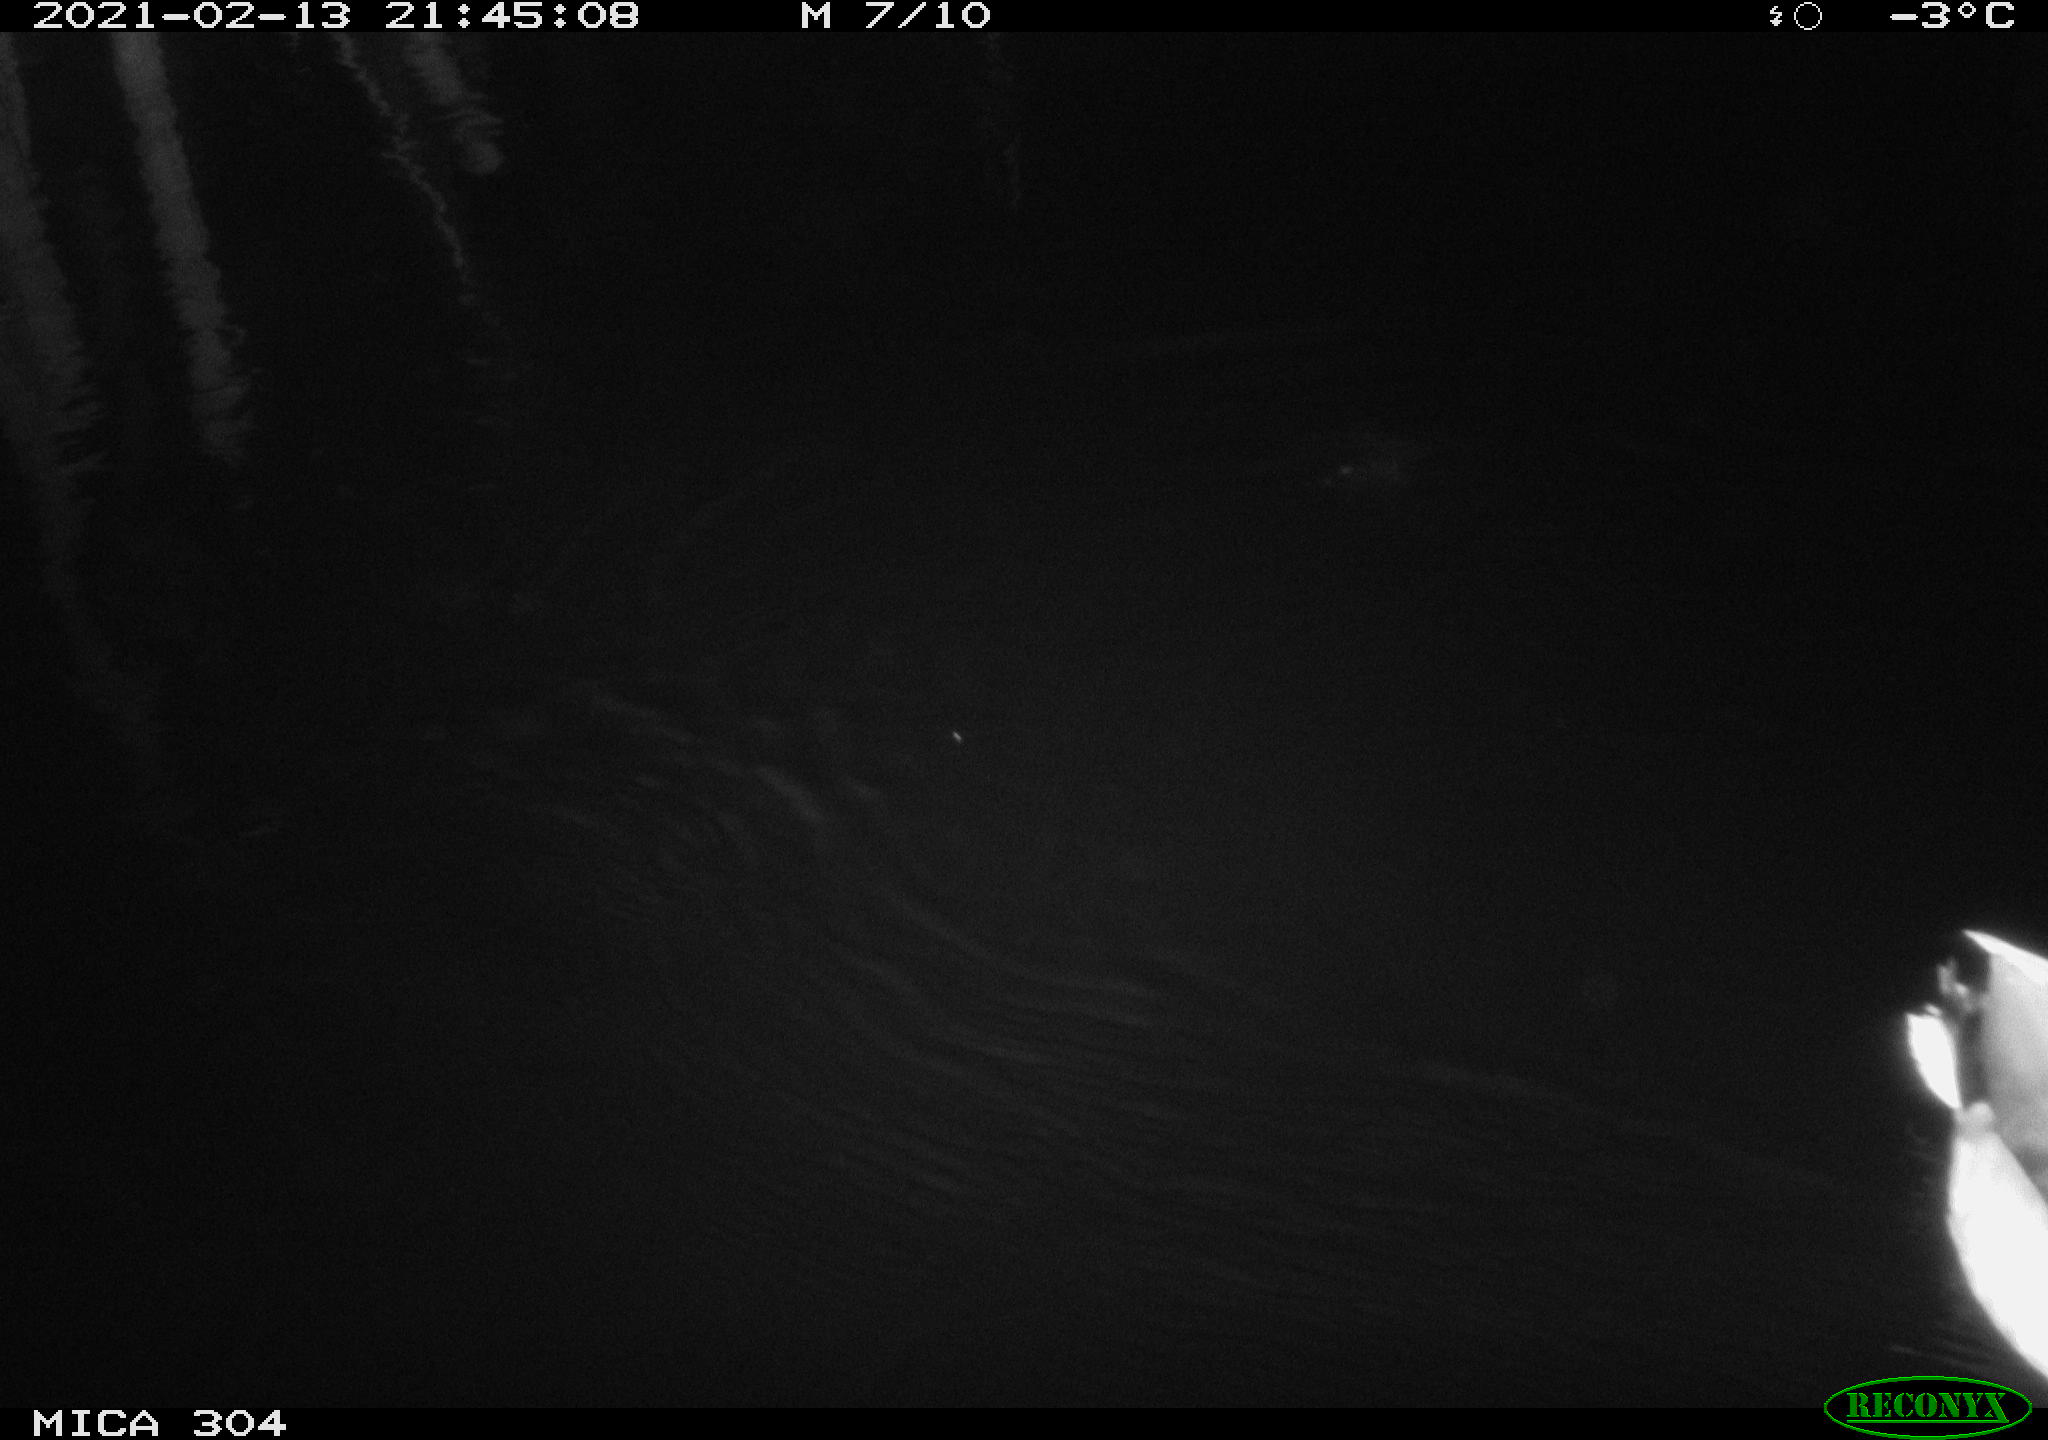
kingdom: Animalia
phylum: Chordata
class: Aves
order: Anseriformes
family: Anatidae
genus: Anas
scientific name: Anas platyrhynchos
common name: Mallard
